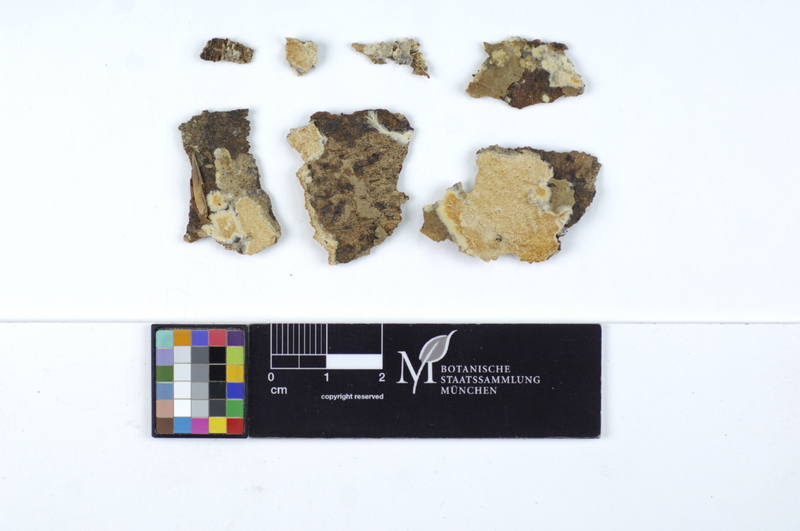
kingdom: Plantae
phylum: Tracheophyta
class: Pinopsida
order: Pinales
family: Pinaceae
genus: Pinus
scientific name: Pinus
